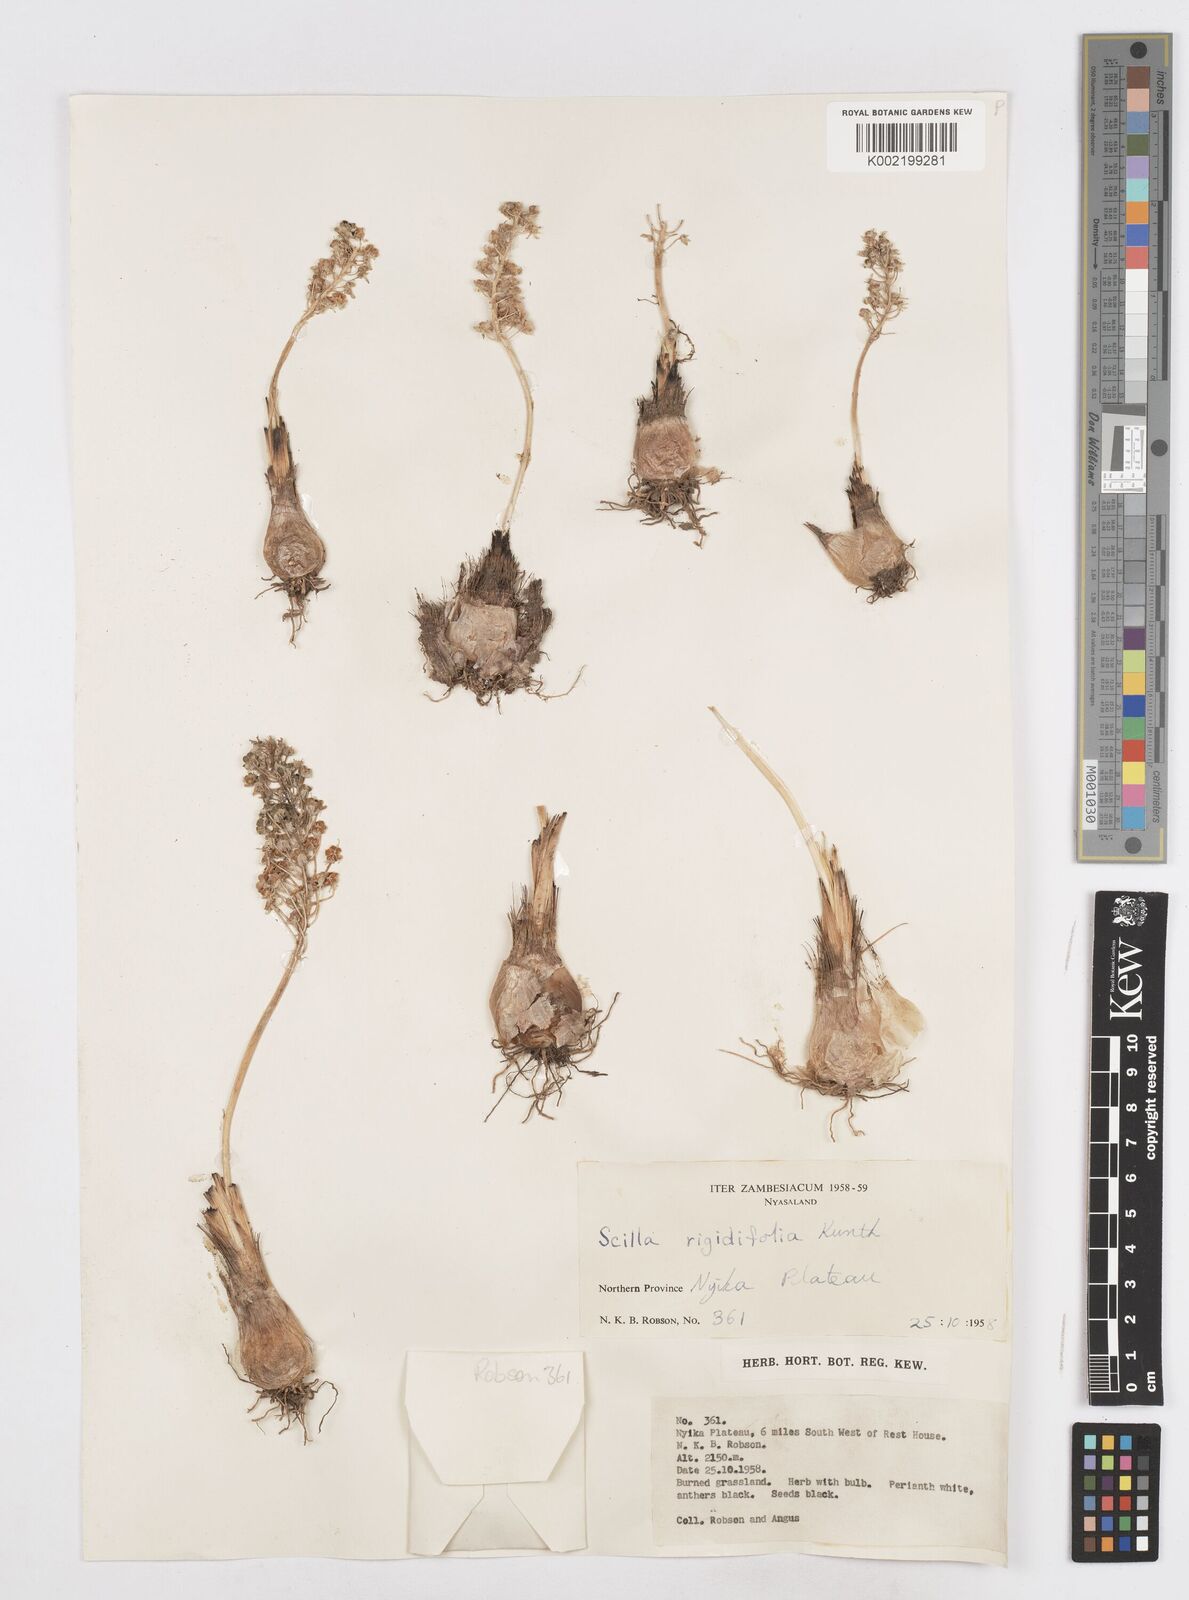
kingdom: Plantae
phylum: Tracheophyta
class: Liliopsida
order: Asparagales
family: Asparagaceae
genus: Schizocarphus
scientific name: Schizocarphus nervosus
